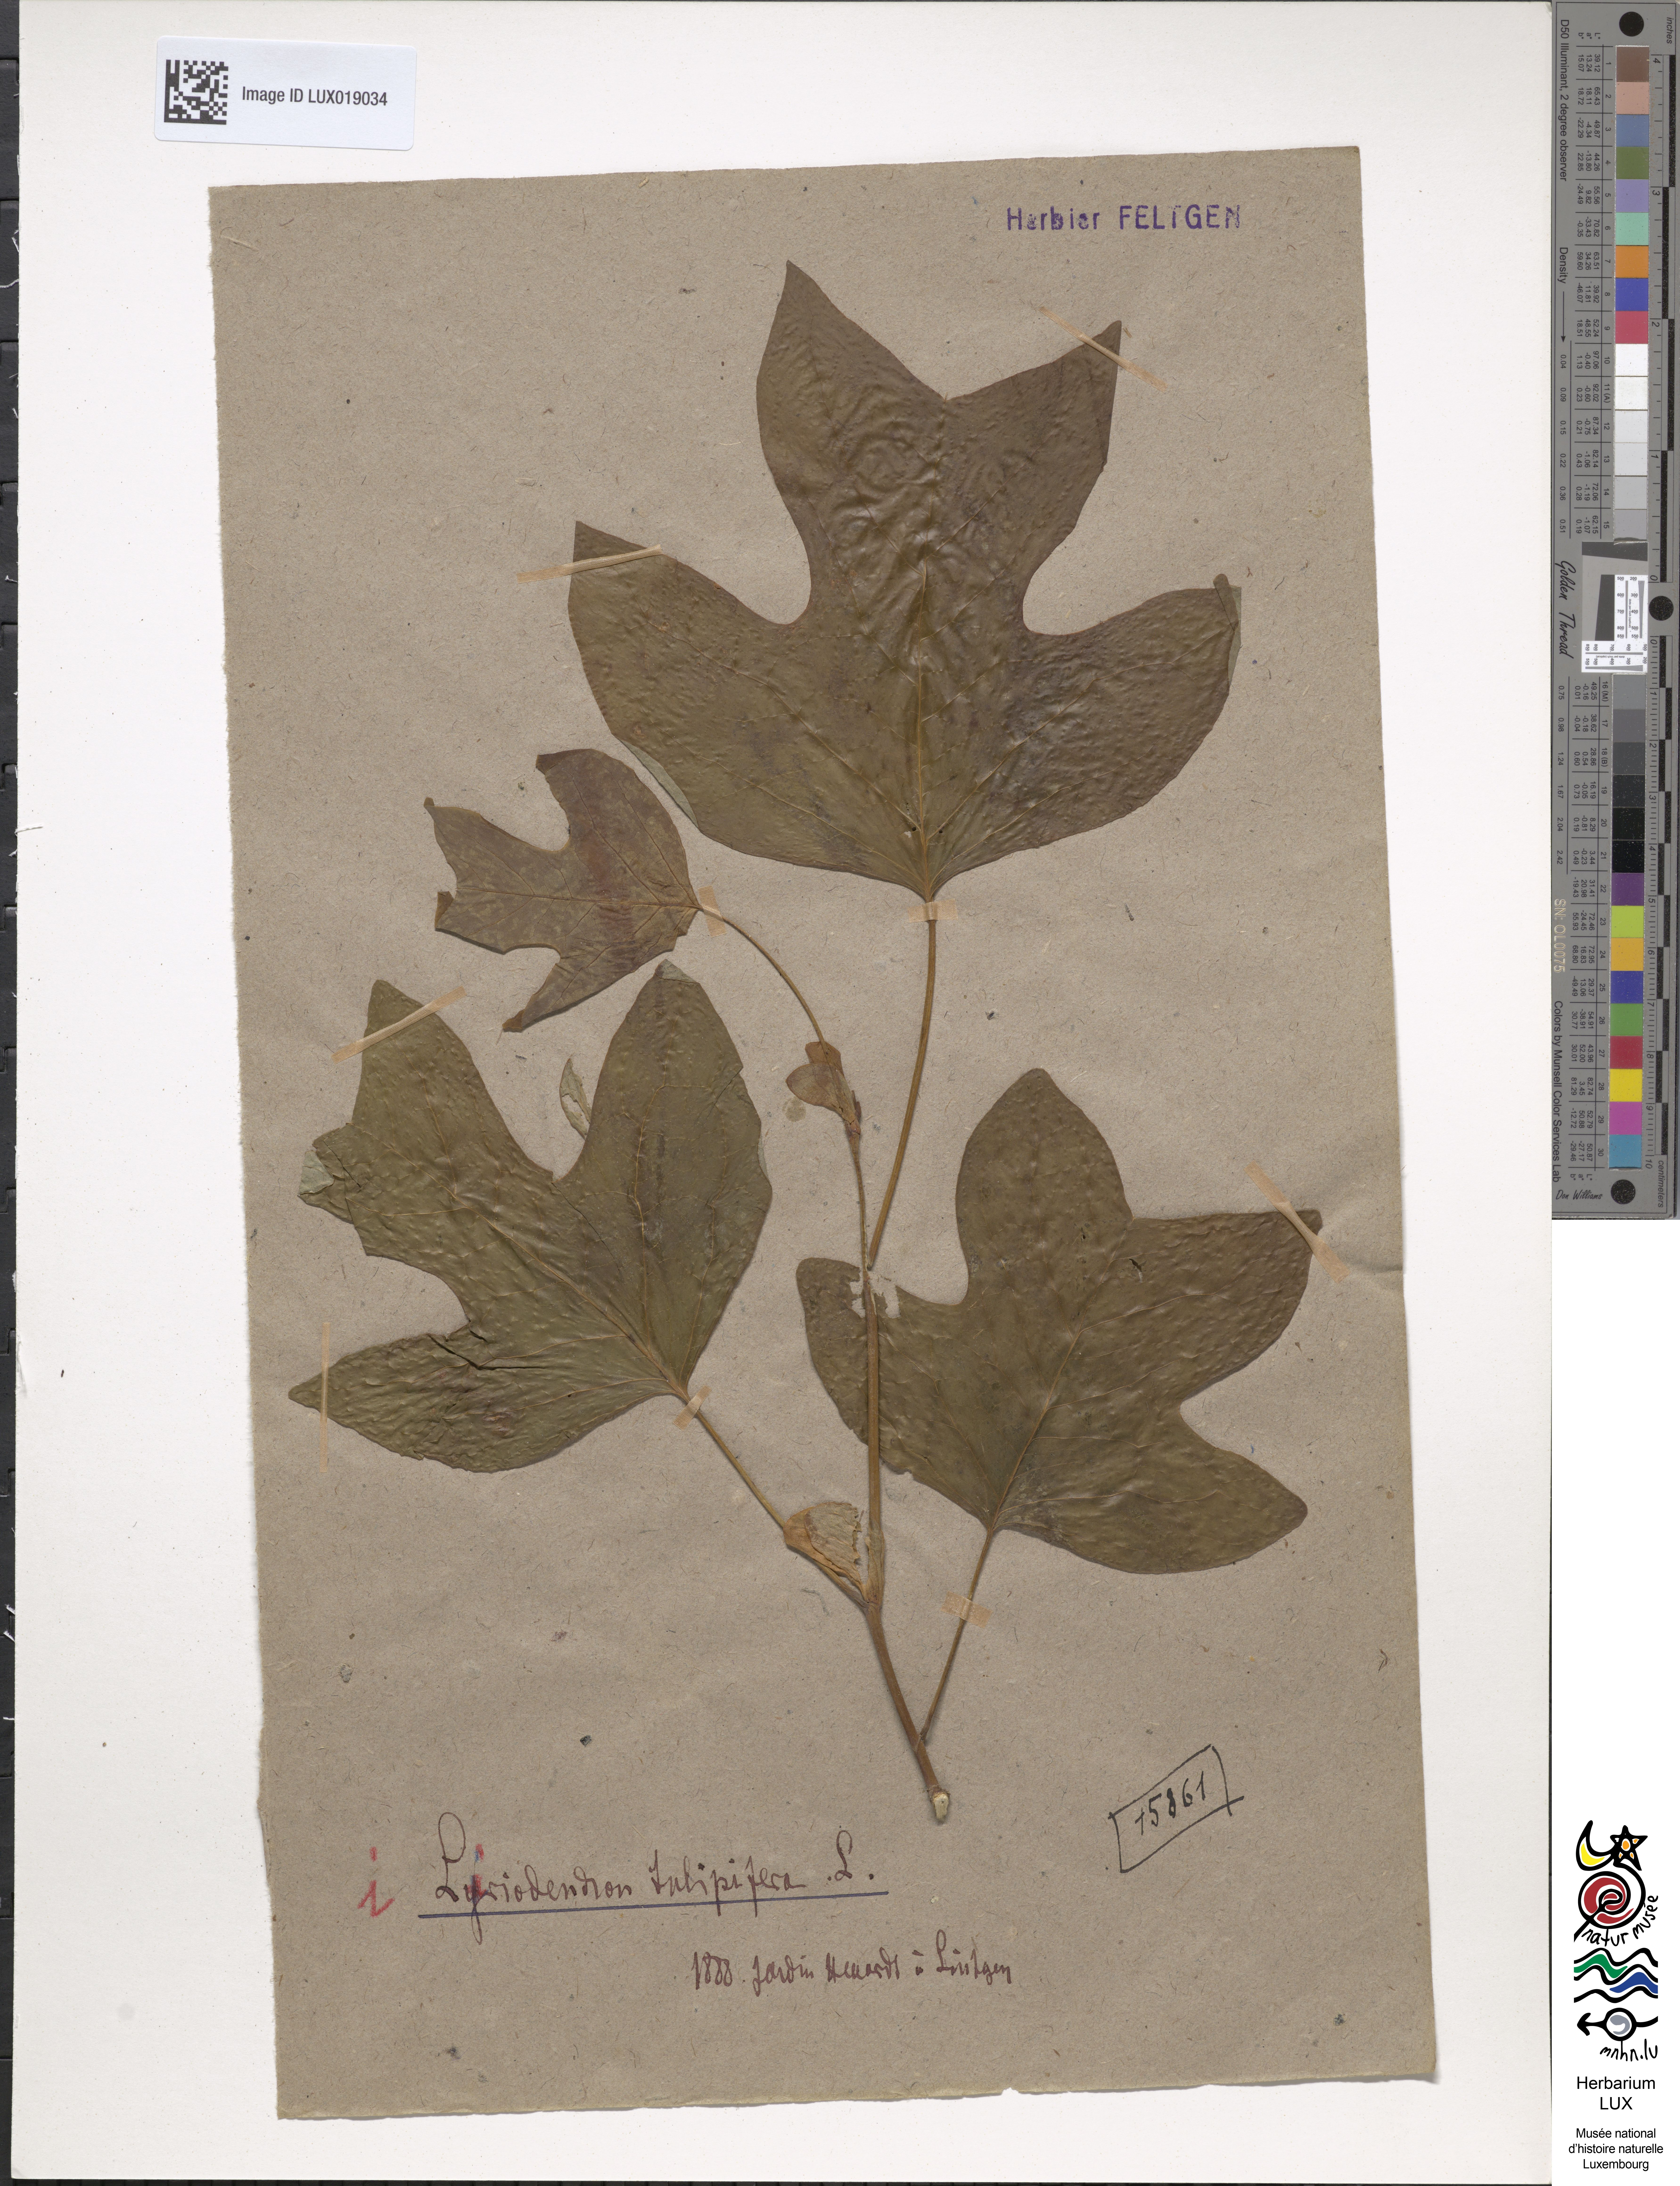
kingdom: Plantae
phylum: Tracheophyta
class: Magnoliopsida
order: Magnoliales
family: Magnoliaceae
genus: Liriodendron
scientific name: Liriodendron tulipifera
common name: Tulip tree
